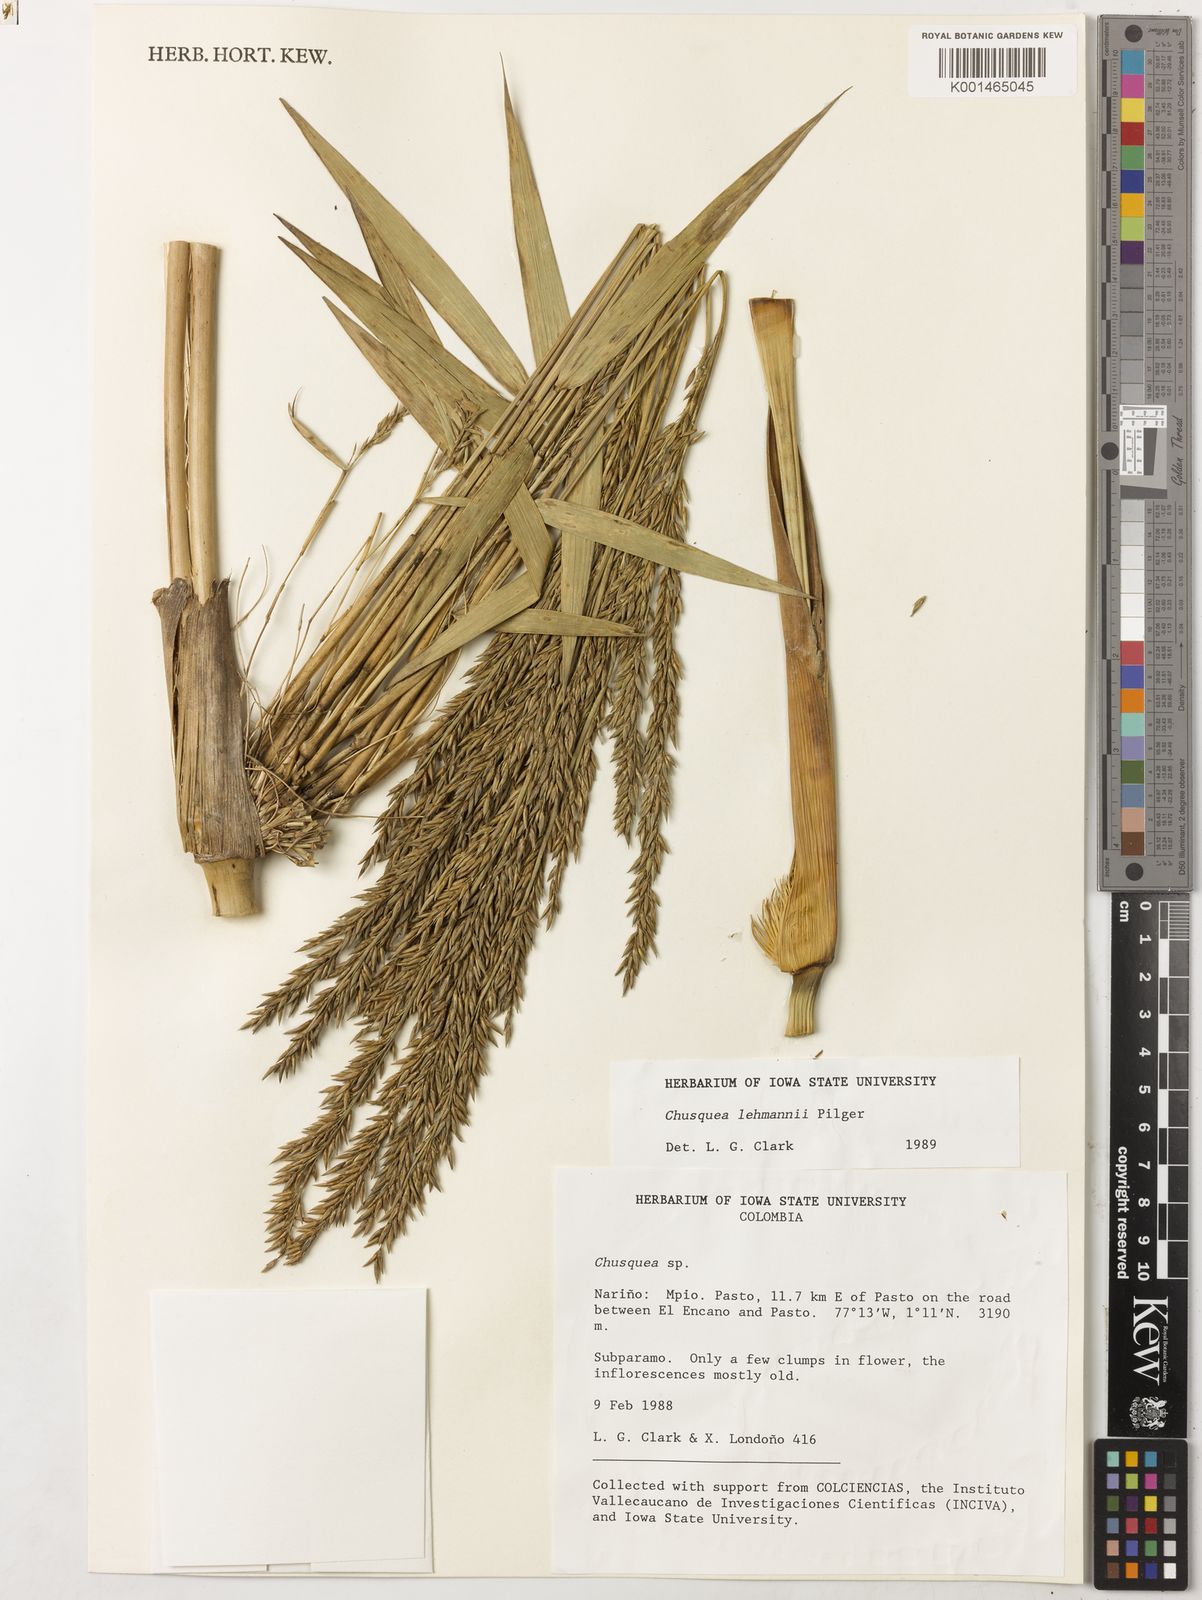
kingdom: Plantae
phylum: Tracheophyta
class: Liliopsida
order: Poales
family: Poaceae
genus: Chusquea
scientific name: Chusquea lehmannii
